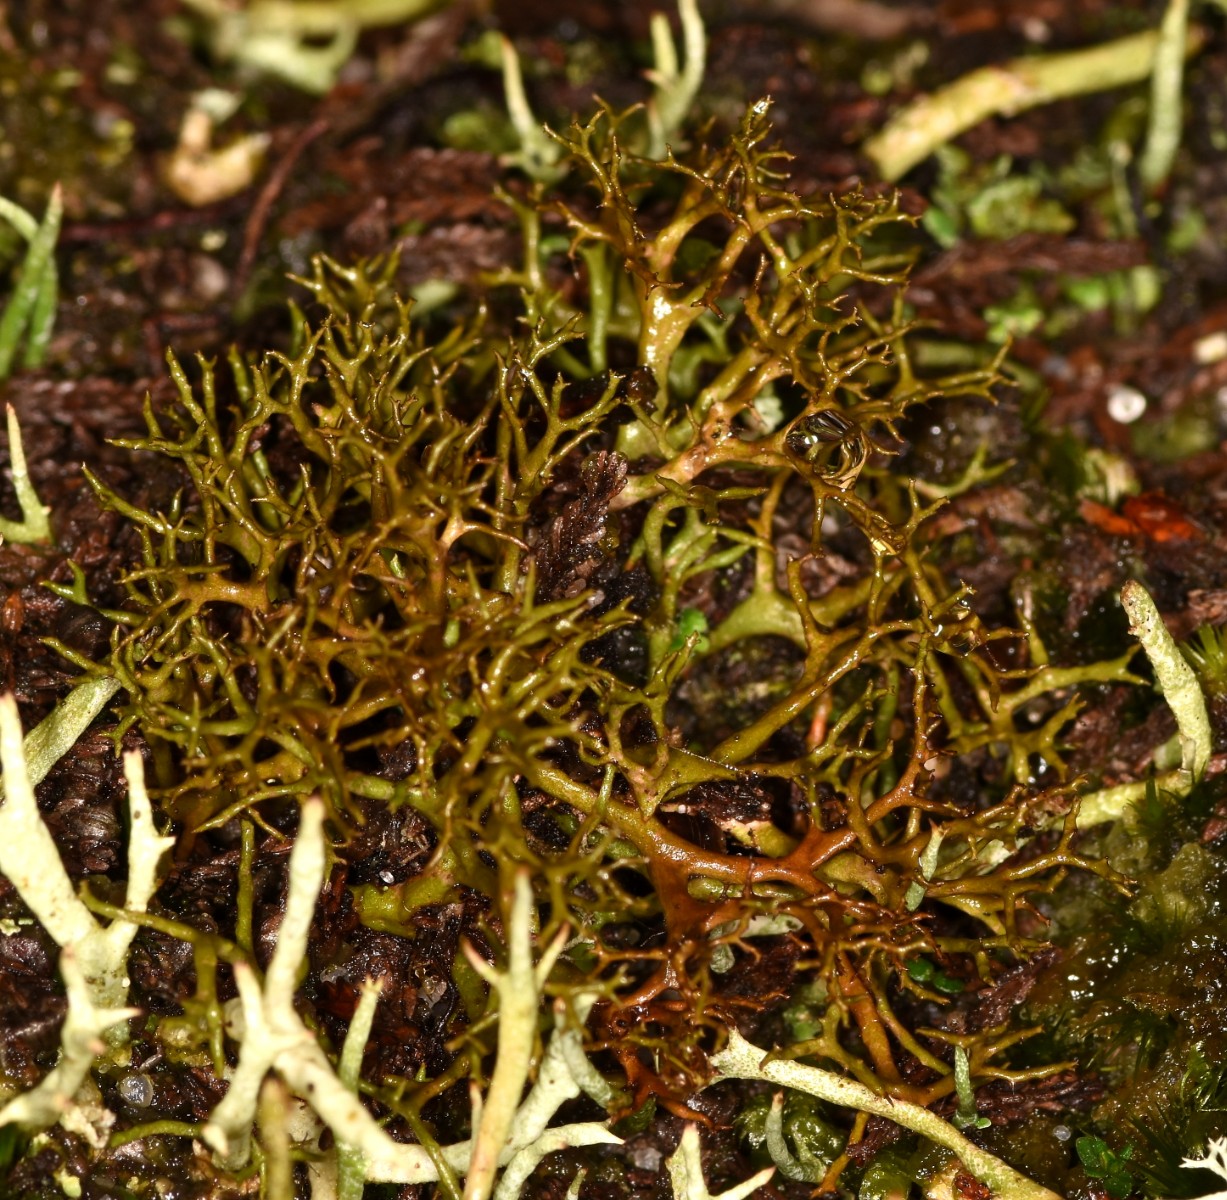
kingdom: Fungi
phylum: Ascomycota
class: Lecanoromycetes
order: Lecanorales
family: Parmeliaceae
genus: Cetraria
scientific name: Cetraria muricata
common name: tue-tjørnelav
